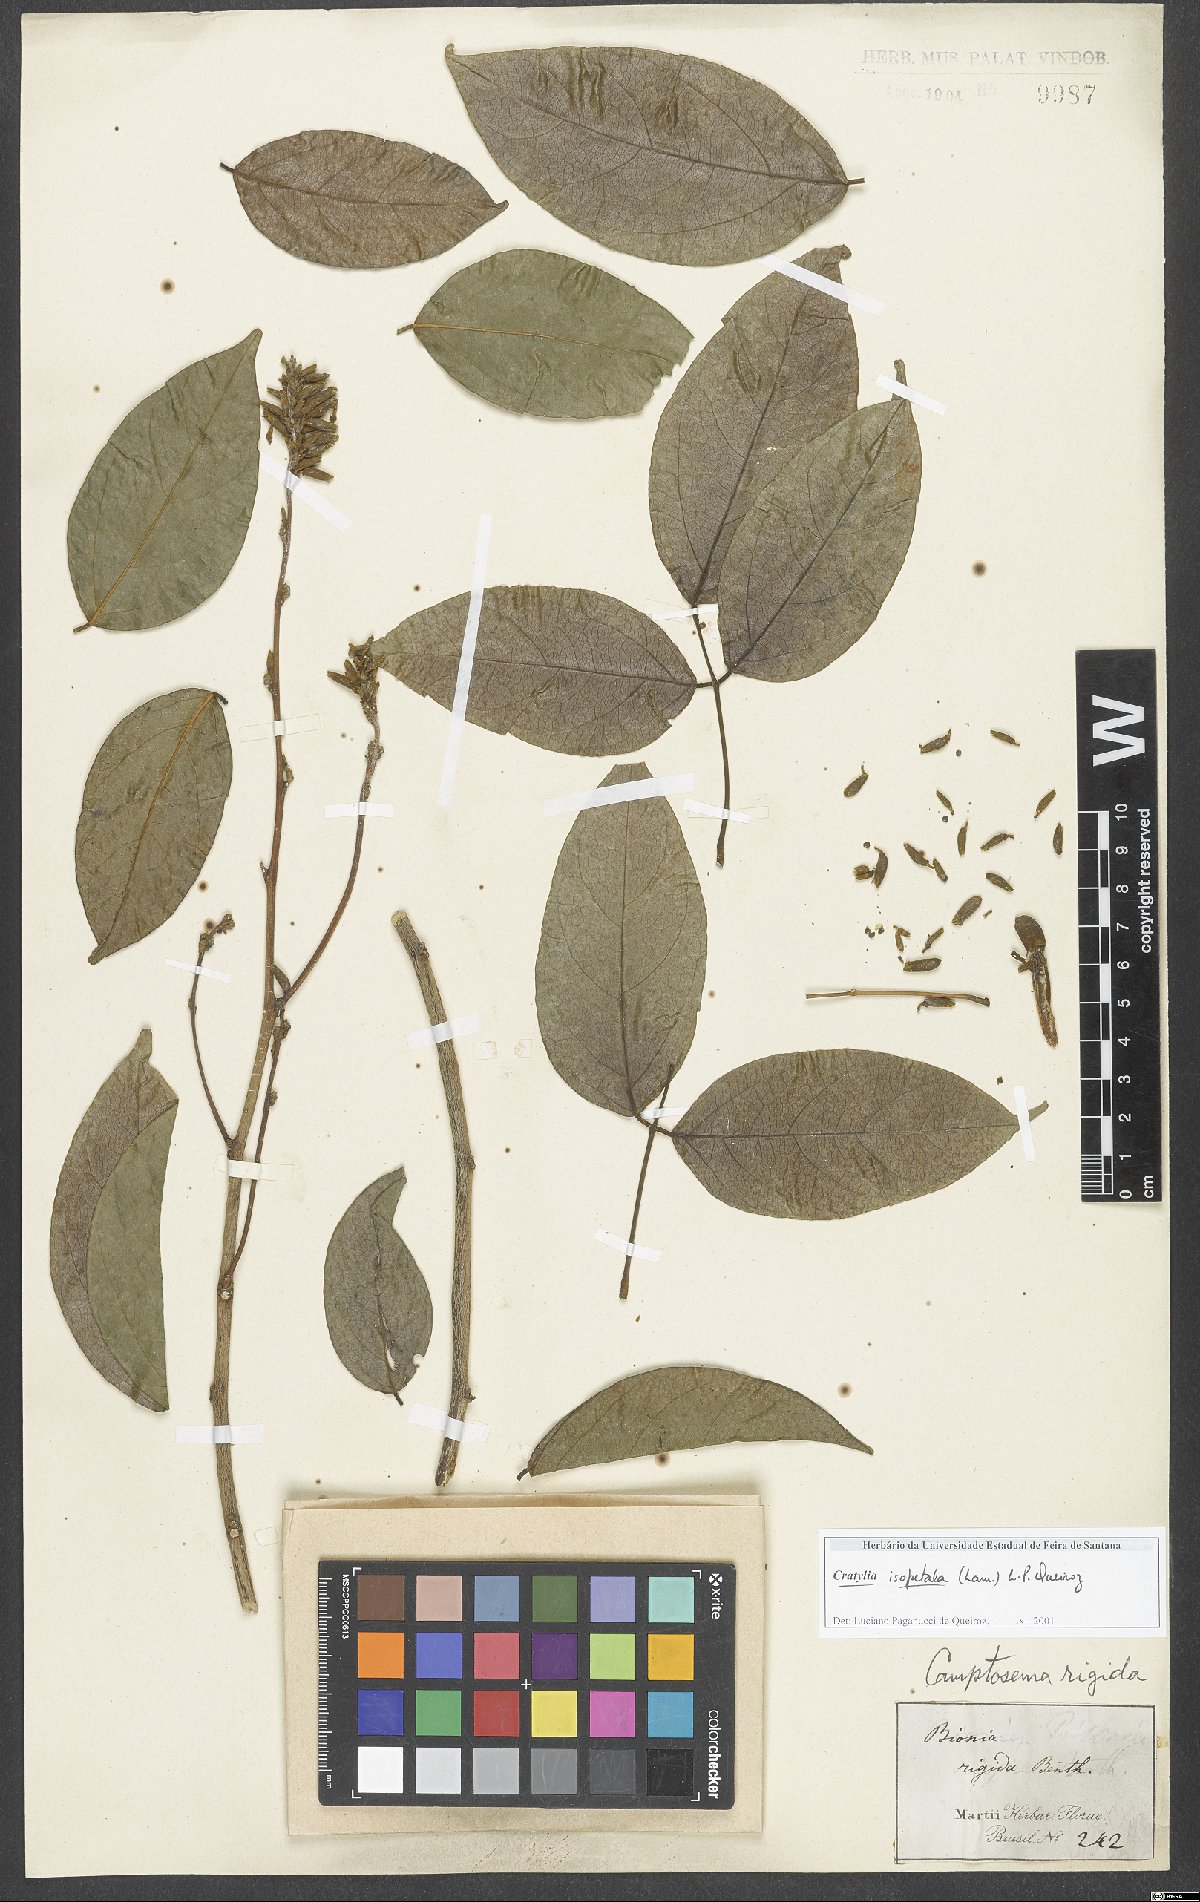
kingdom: Plantae
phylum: Tracheophyta
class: Magnoliopsida
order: Fabales
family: Fabaceae
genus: Cratylia
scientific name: Cratylia isopetala
